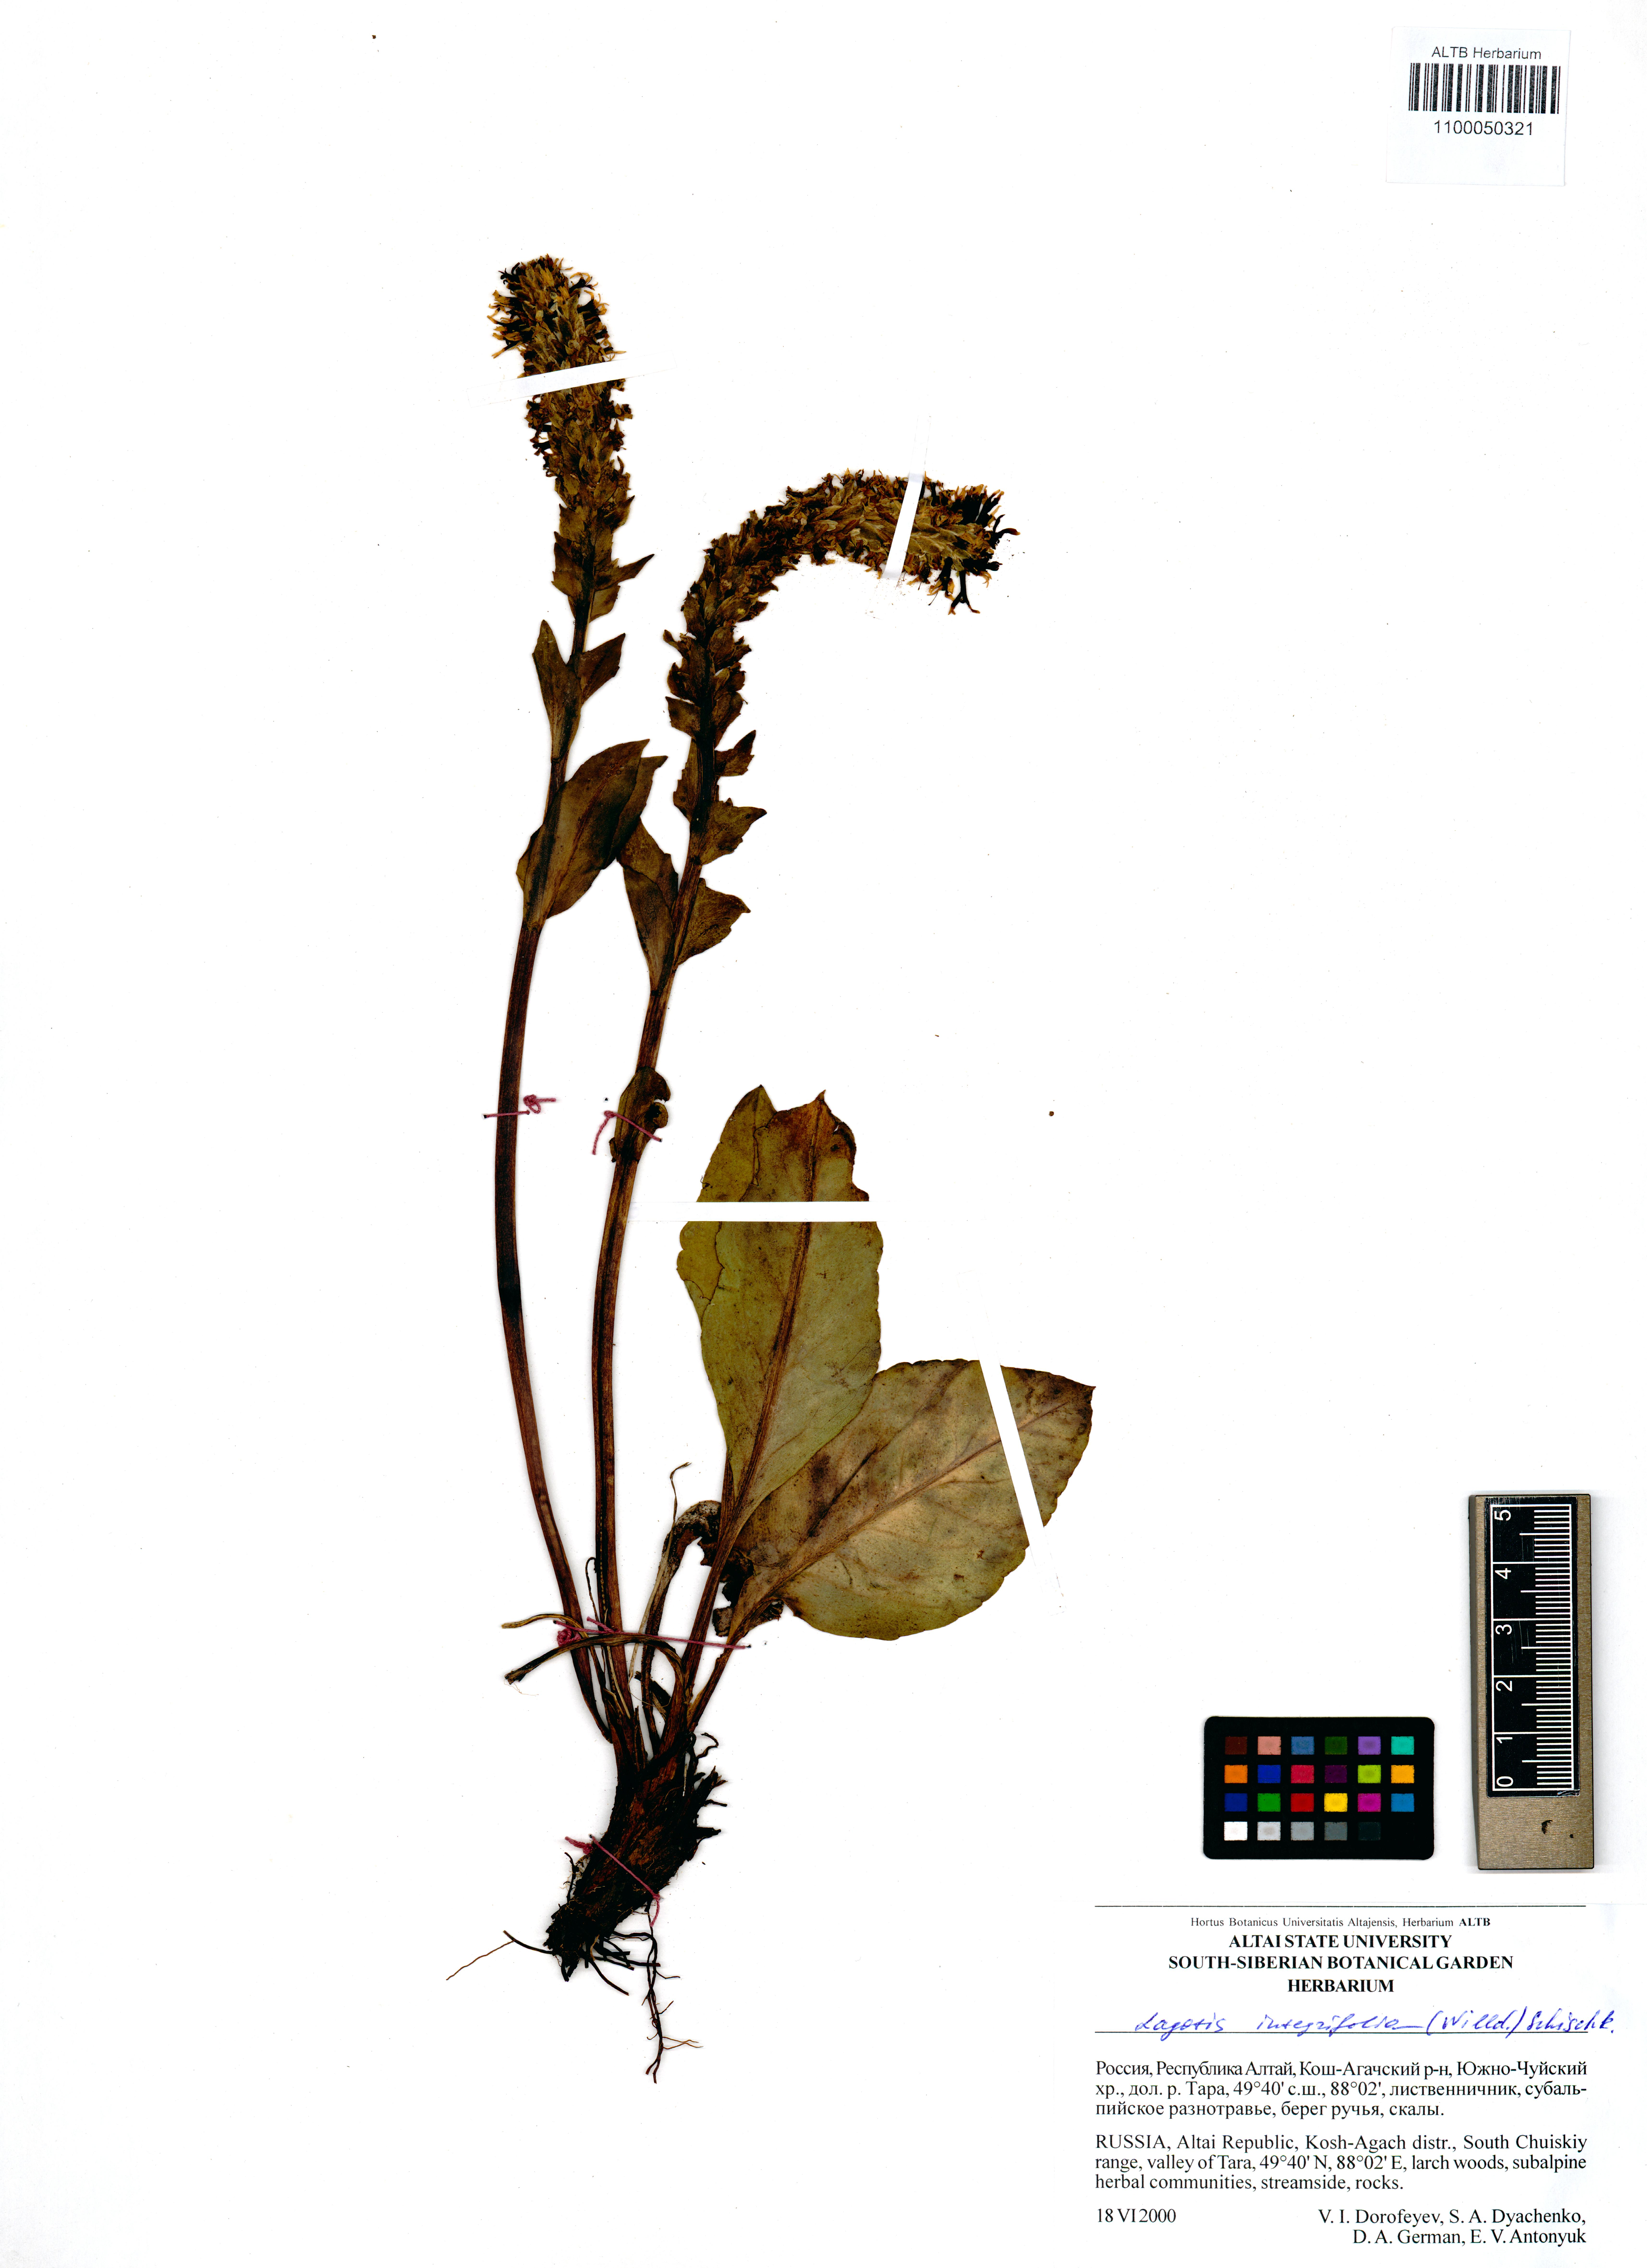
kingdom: Plantae
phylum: Tracheophyta
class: Magnoliopsida
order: Lamiales
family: Plantaginaceae
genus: Lagotis
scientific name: Lagotis integrifolia
